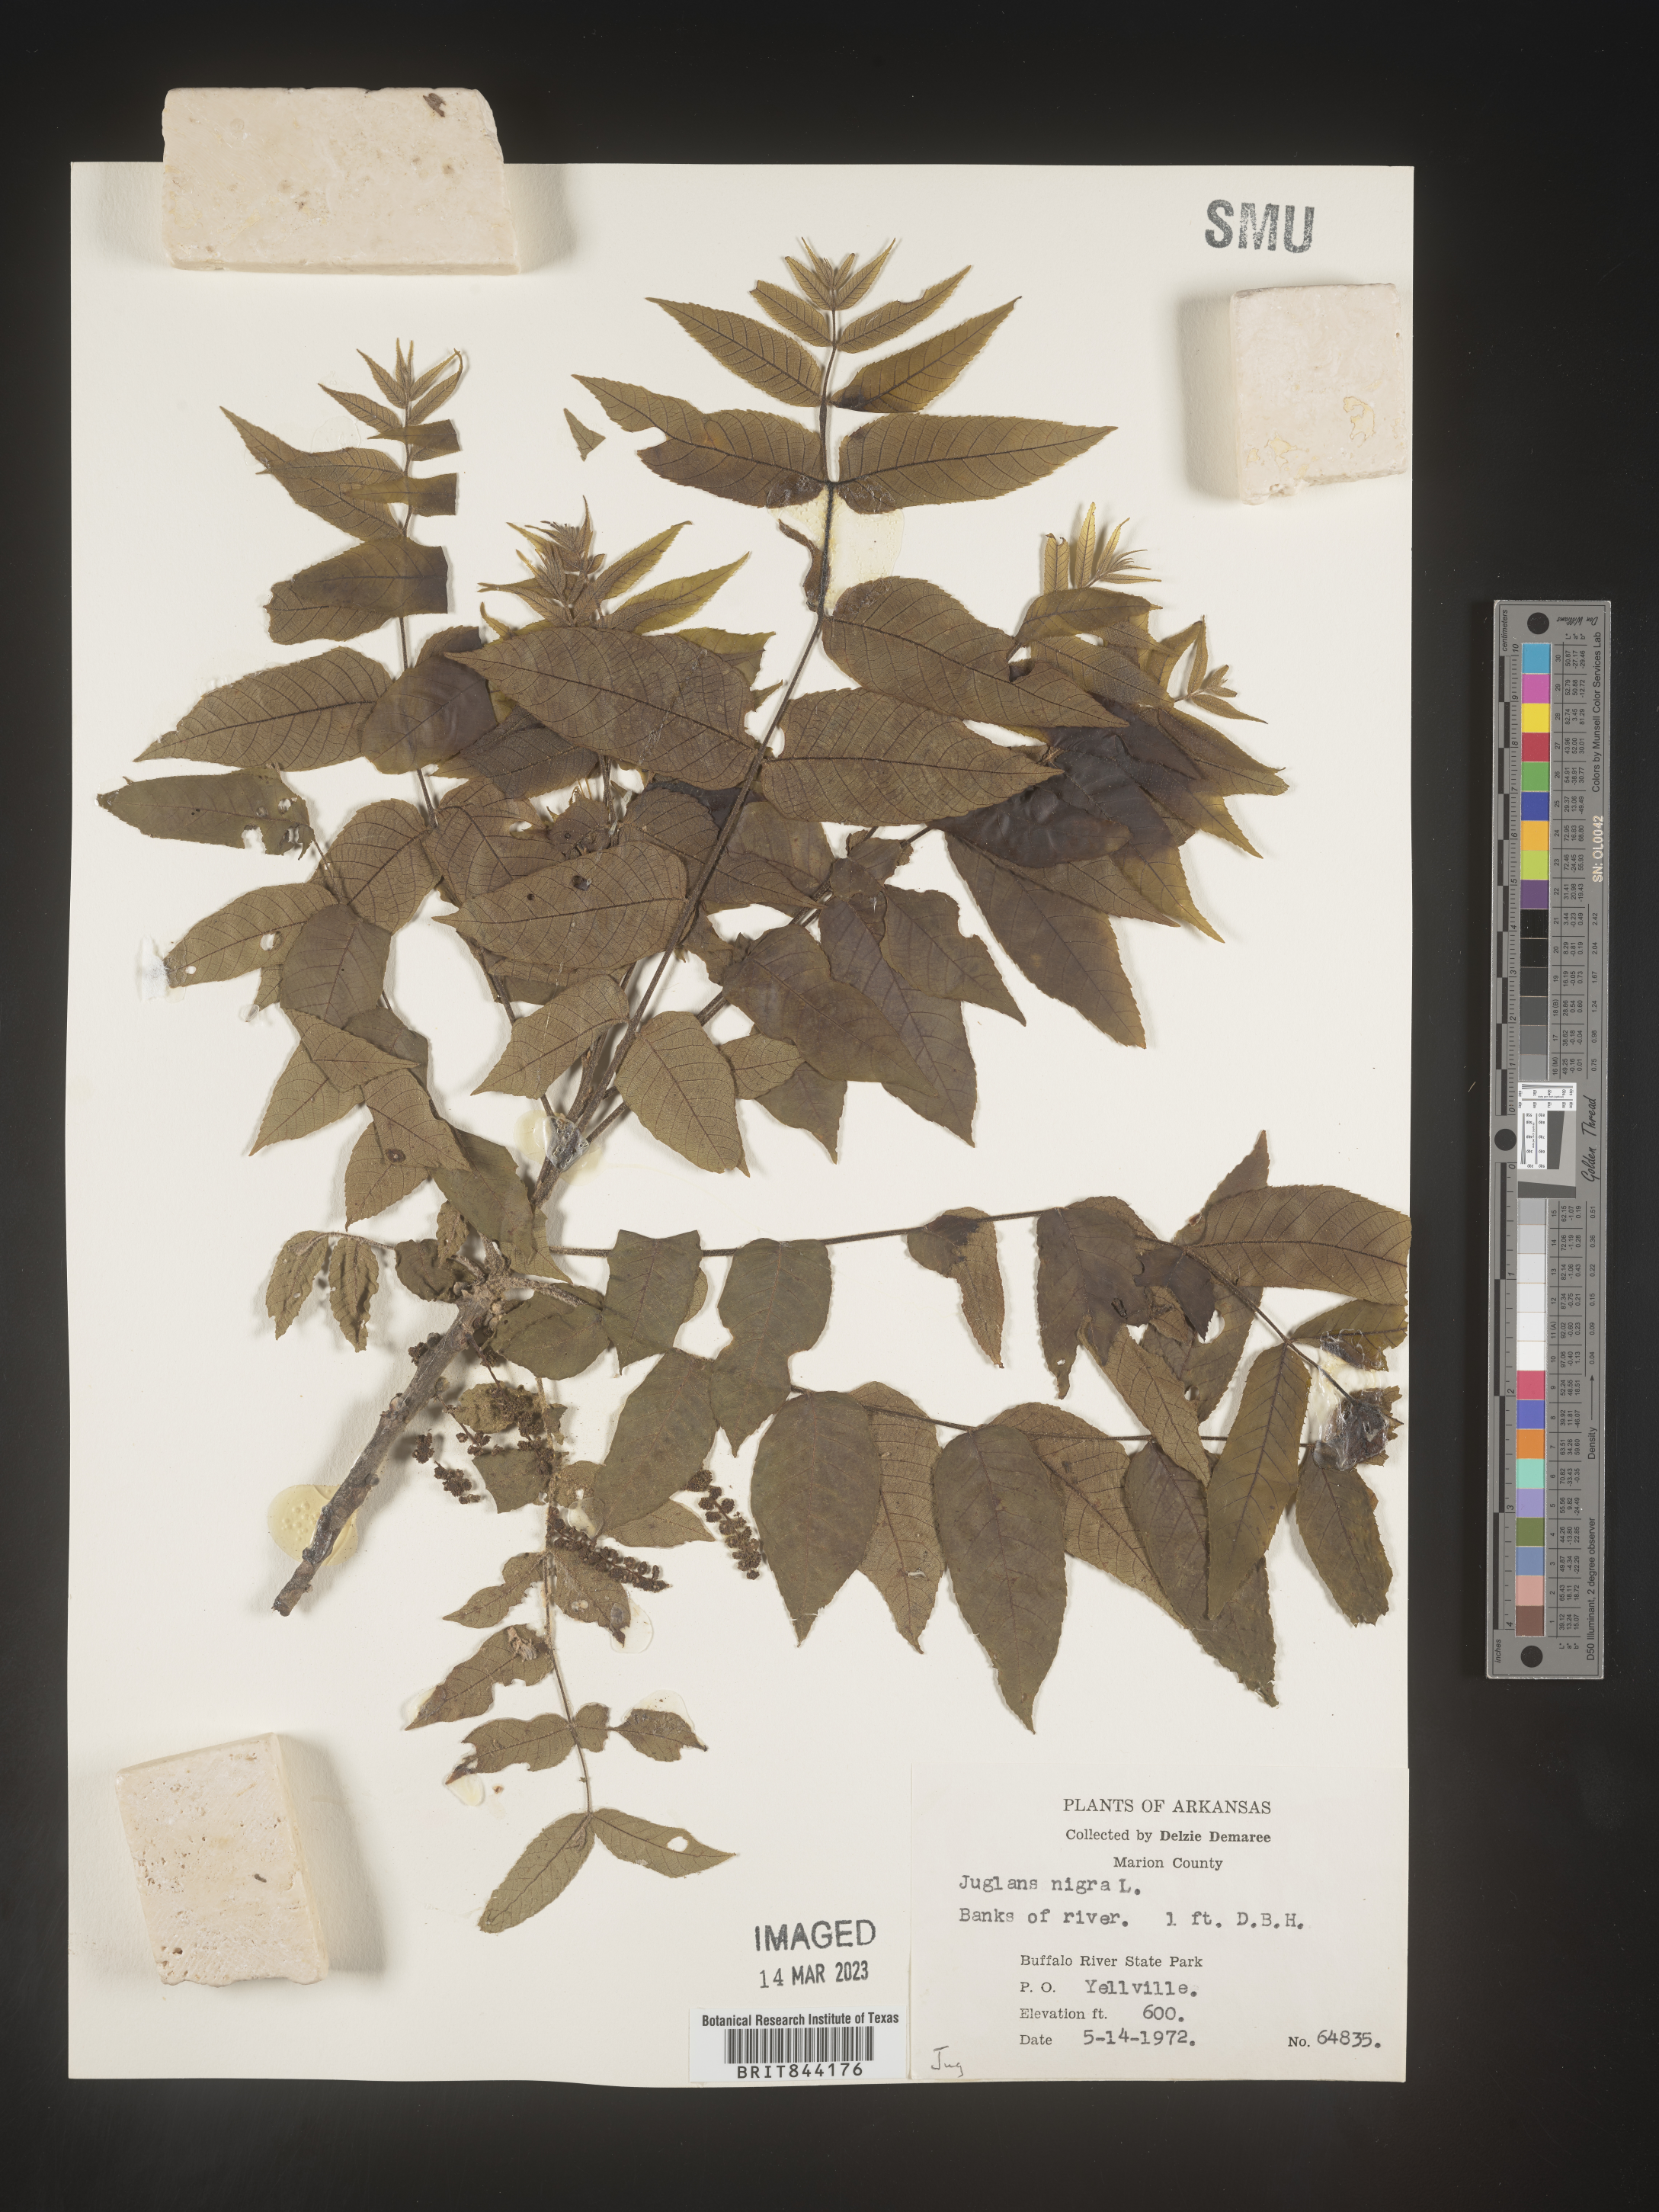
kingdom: Plantae
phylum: Tracheophyta
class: Magnoliopsida
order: Fagales
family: Juglandaceae
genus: Juglans
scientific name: Juglans nigra
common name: Black walnut
